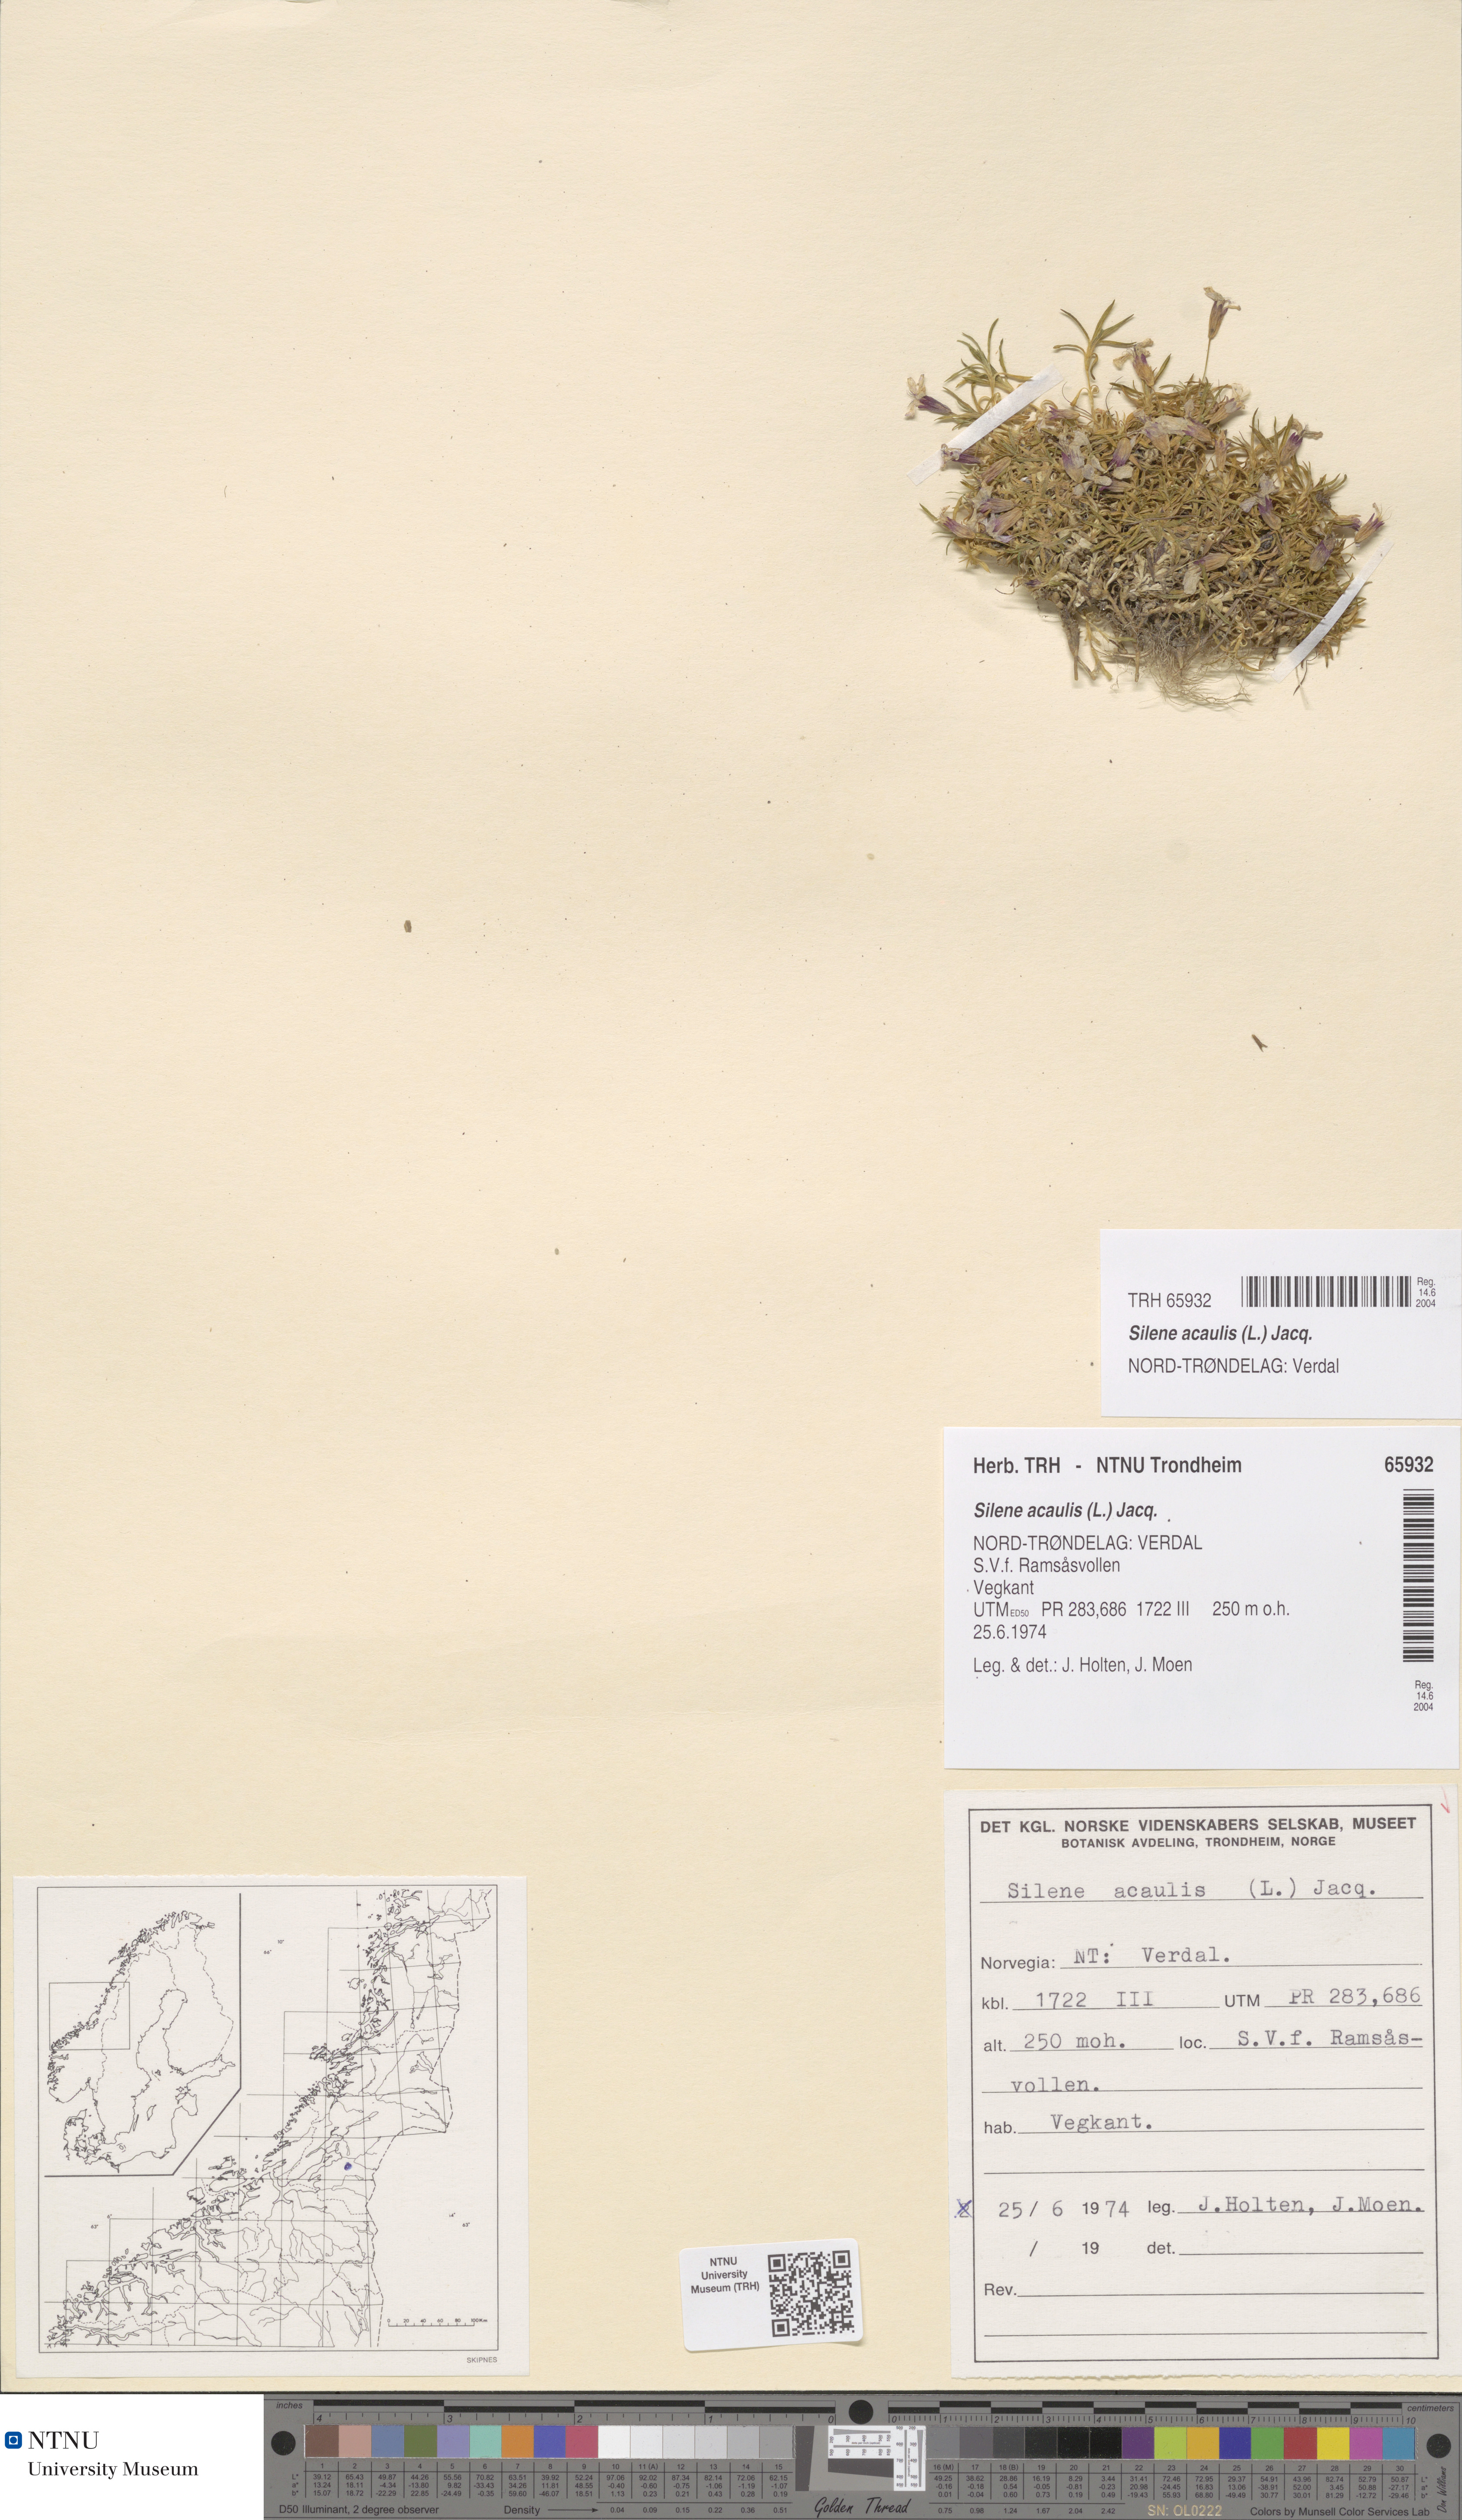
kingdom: Plantae
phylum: Tracheophyta
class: Magnoliopsida
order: Caryophyllales
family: Caryophyllaceae
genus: Silene
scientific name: Silene acaulis
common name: Moss campion
